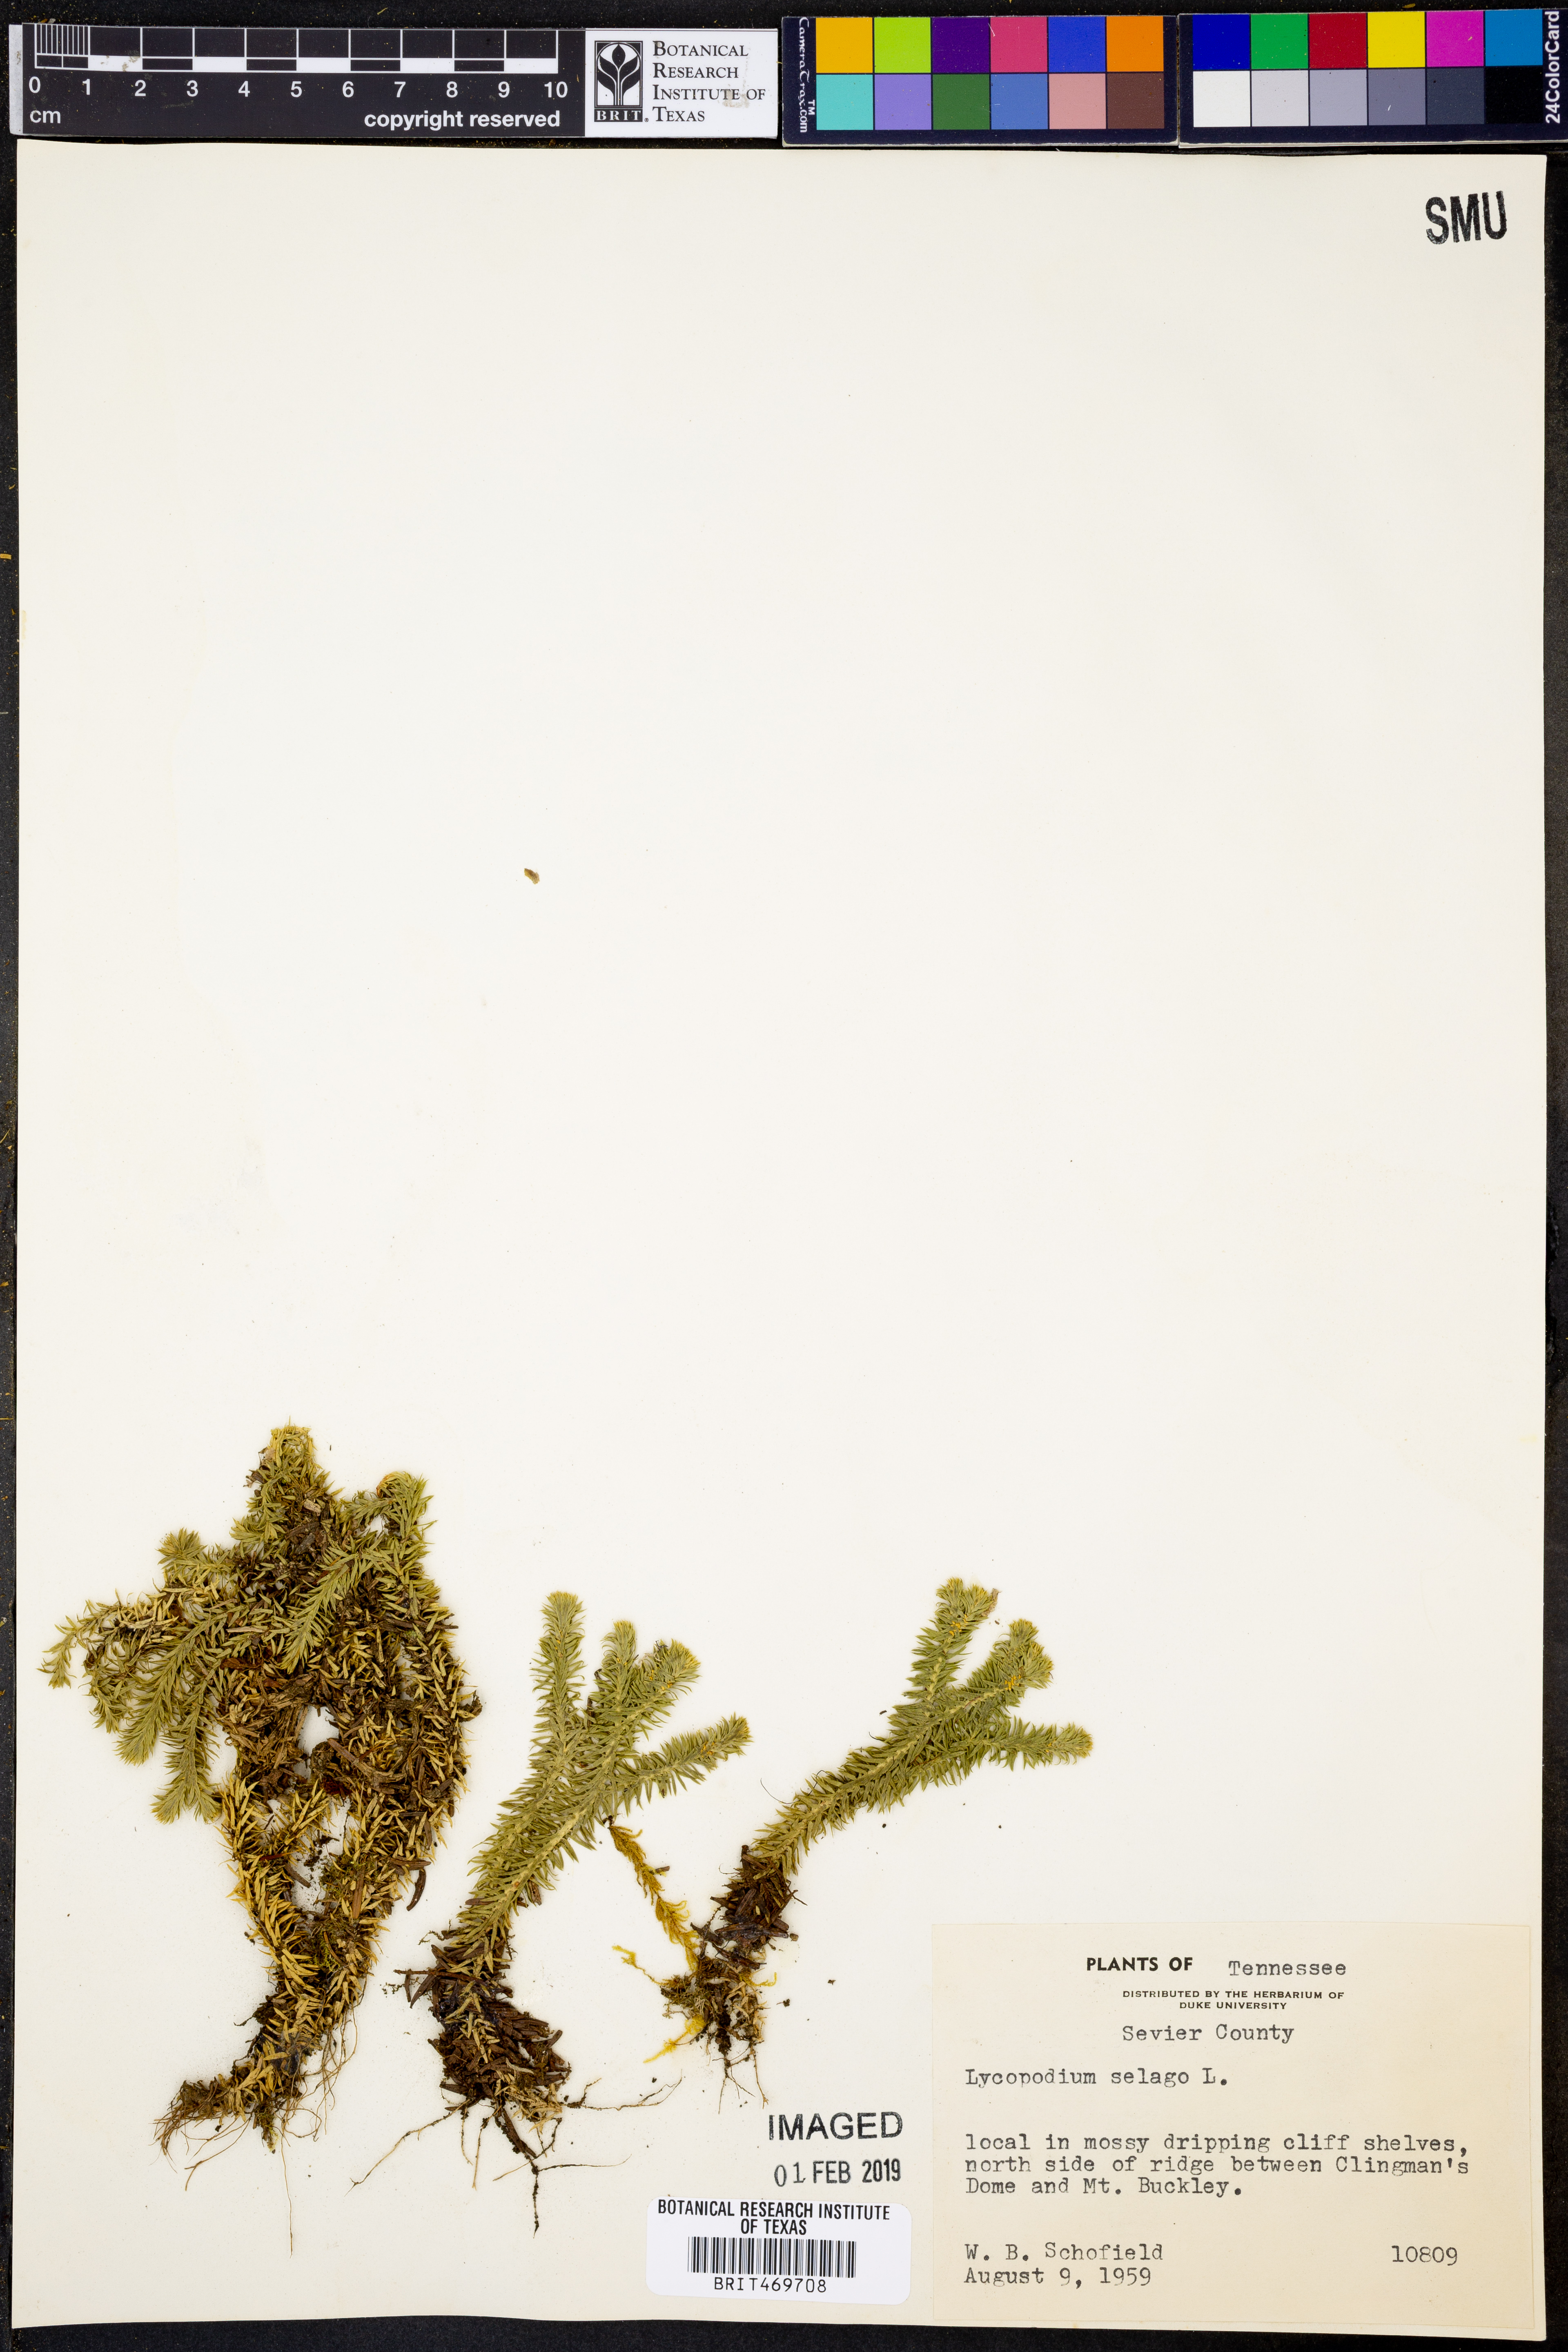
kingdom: Plantae
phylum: Tracheophyta
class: Lycopodiopsida
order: Lycopodiales
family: Lycopodiaceae
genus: Huperzia
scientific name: Huperzia selago
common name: Northern firmoss
